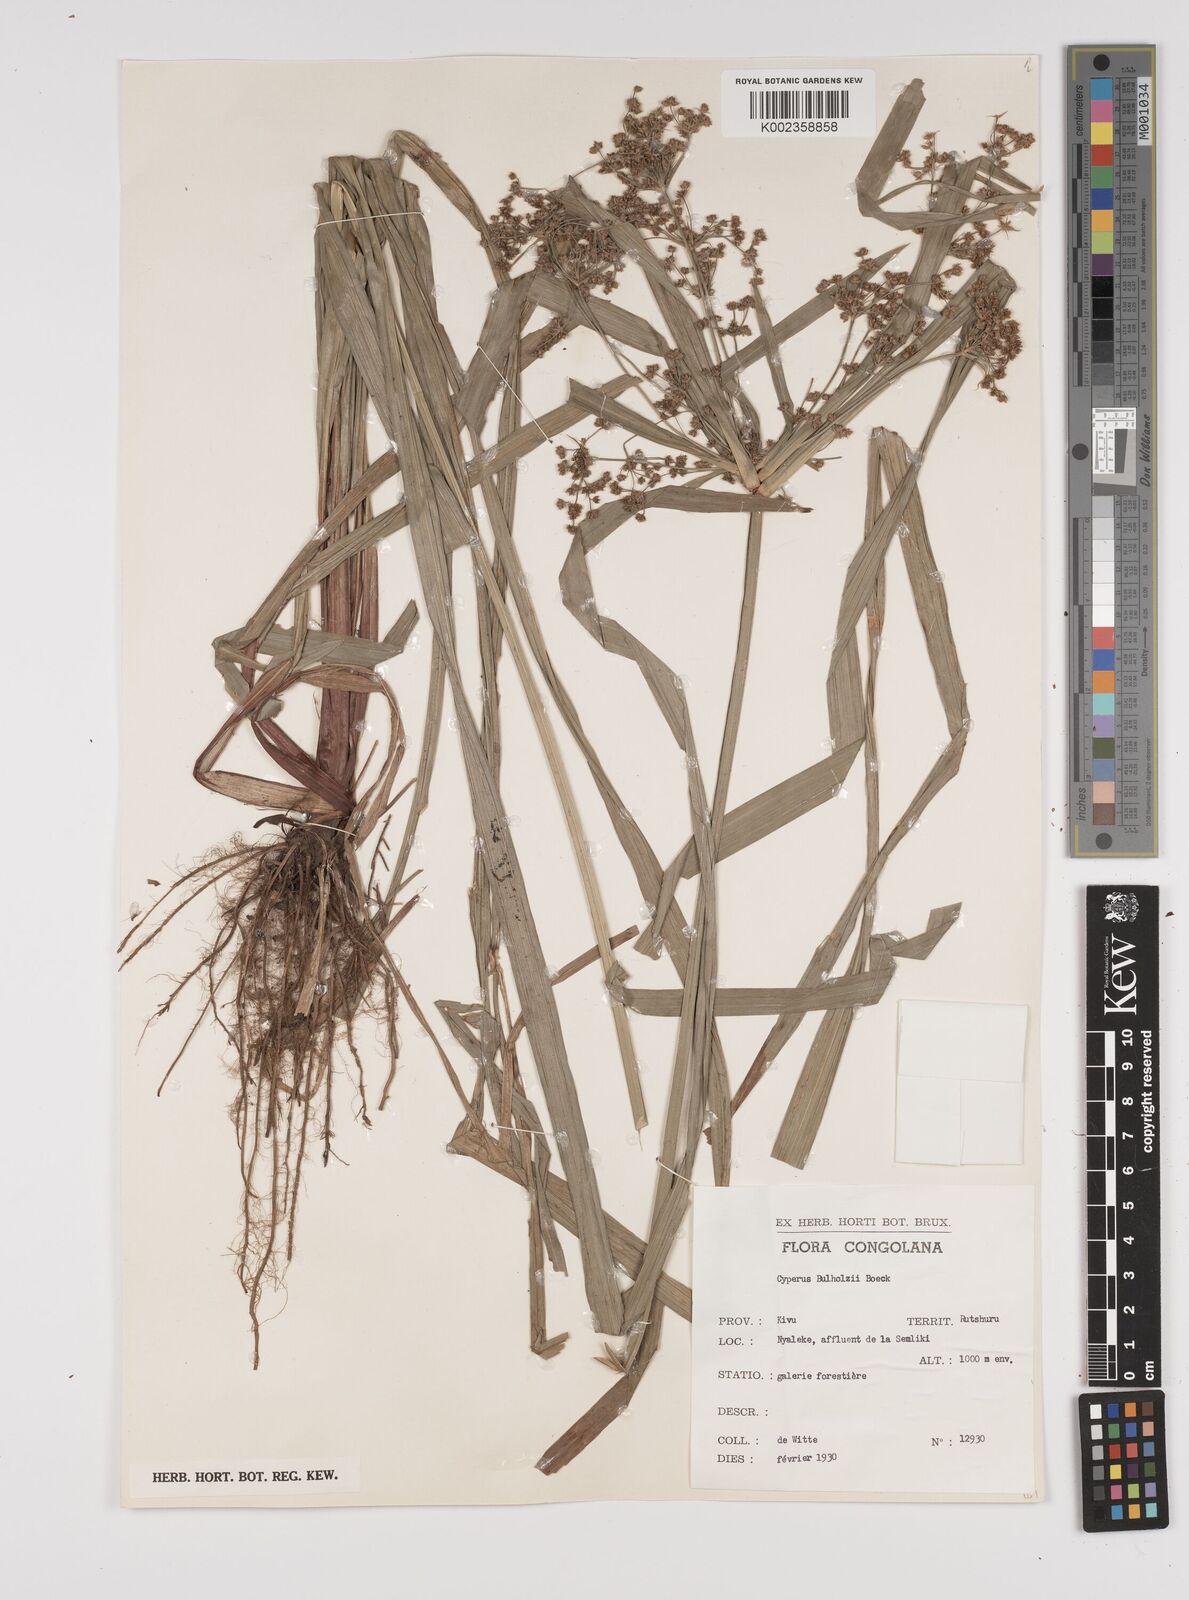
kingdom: Plantae
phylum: Tracheophyta
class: Liliopsida
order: Poales
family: Cyperaceae
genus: Cyperus
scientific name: Cyperus glaucophyllus
